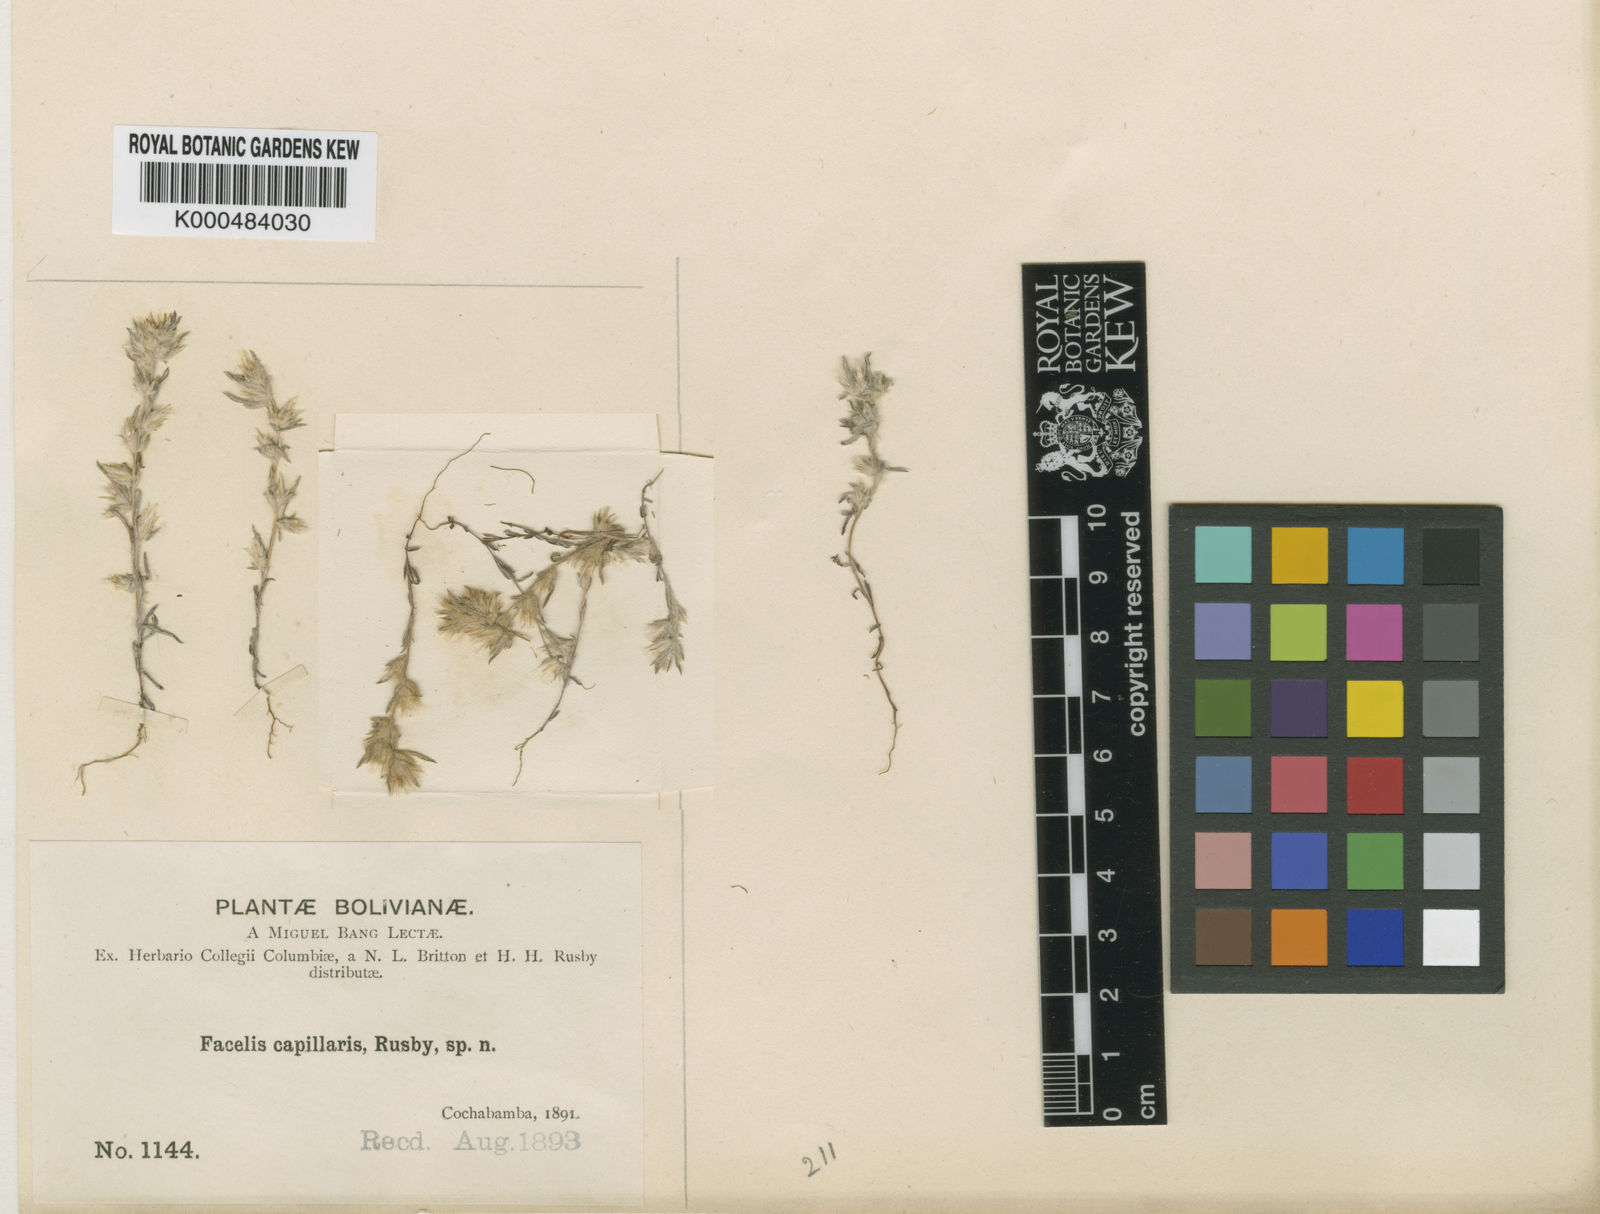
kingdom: Plantae
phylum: Tracheophyta
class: Magnoliopsida
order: Asterales
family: Asteraceae
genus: Facelis
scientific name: Facelis lasiocarpa
